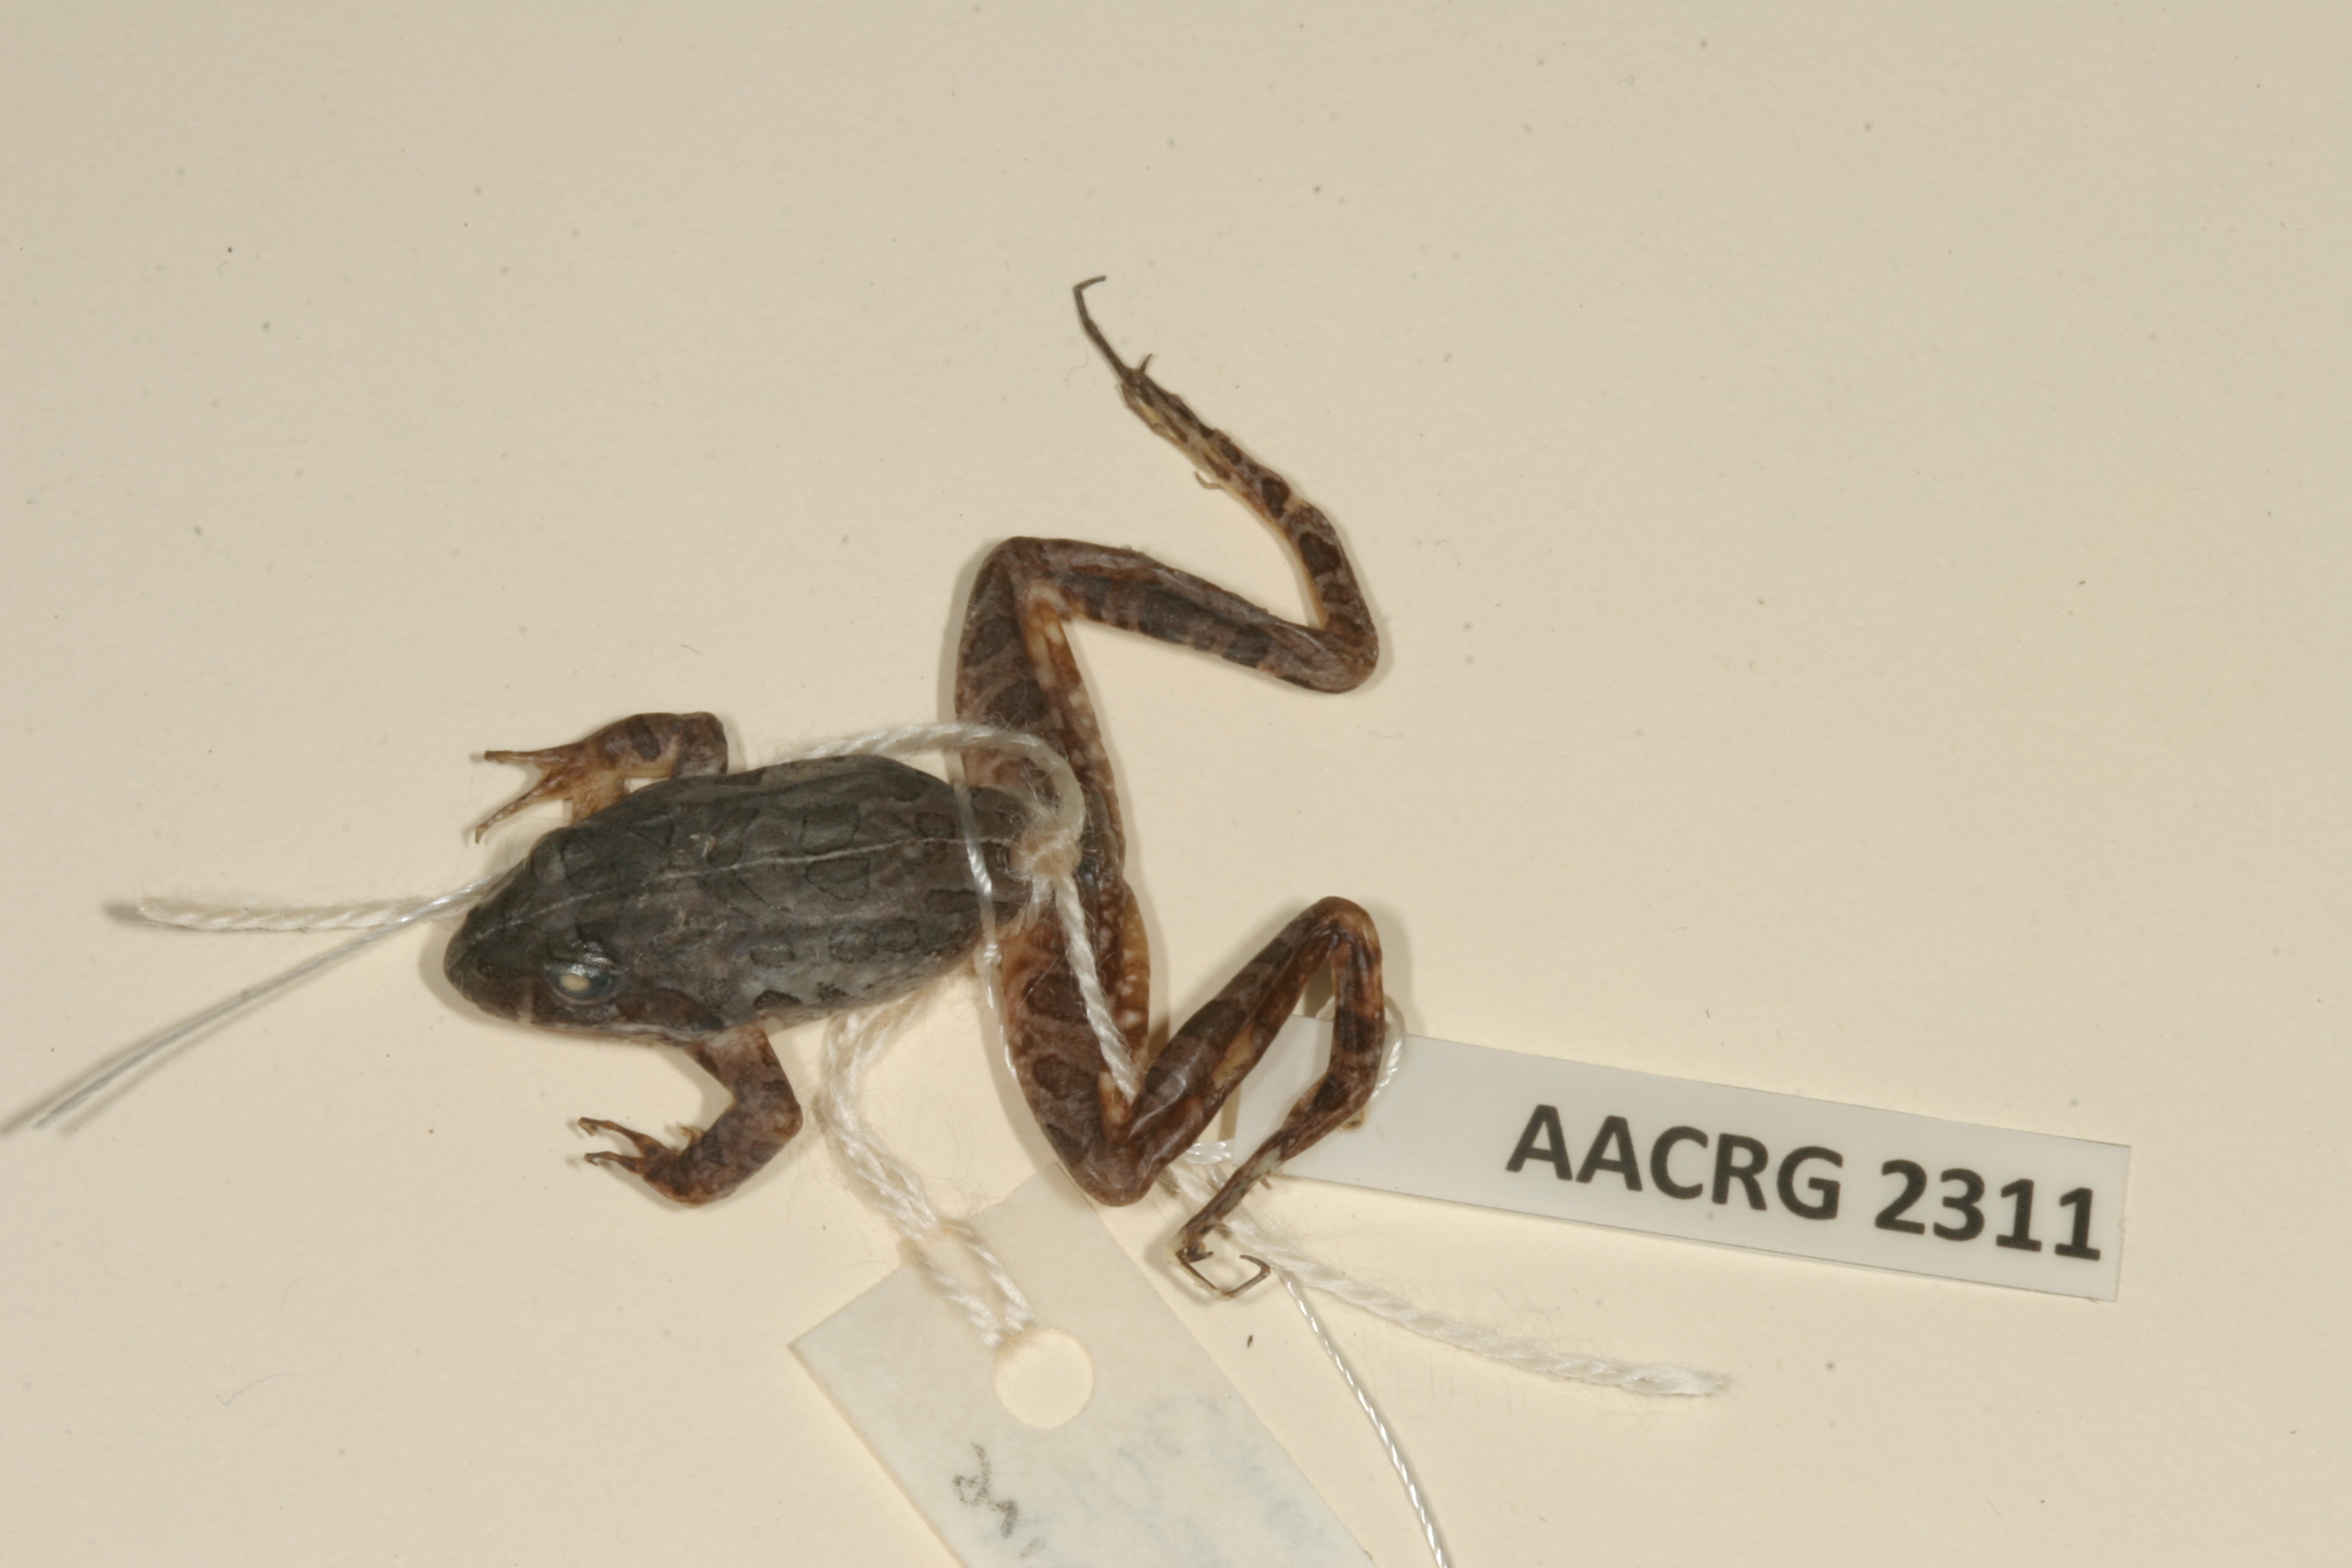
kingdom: Animalia
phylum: Chordata
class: Amphibia
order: Anura
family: Pyxicephalidae
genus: Amietia
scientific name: Amietia fuscigula
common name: Cape rana
